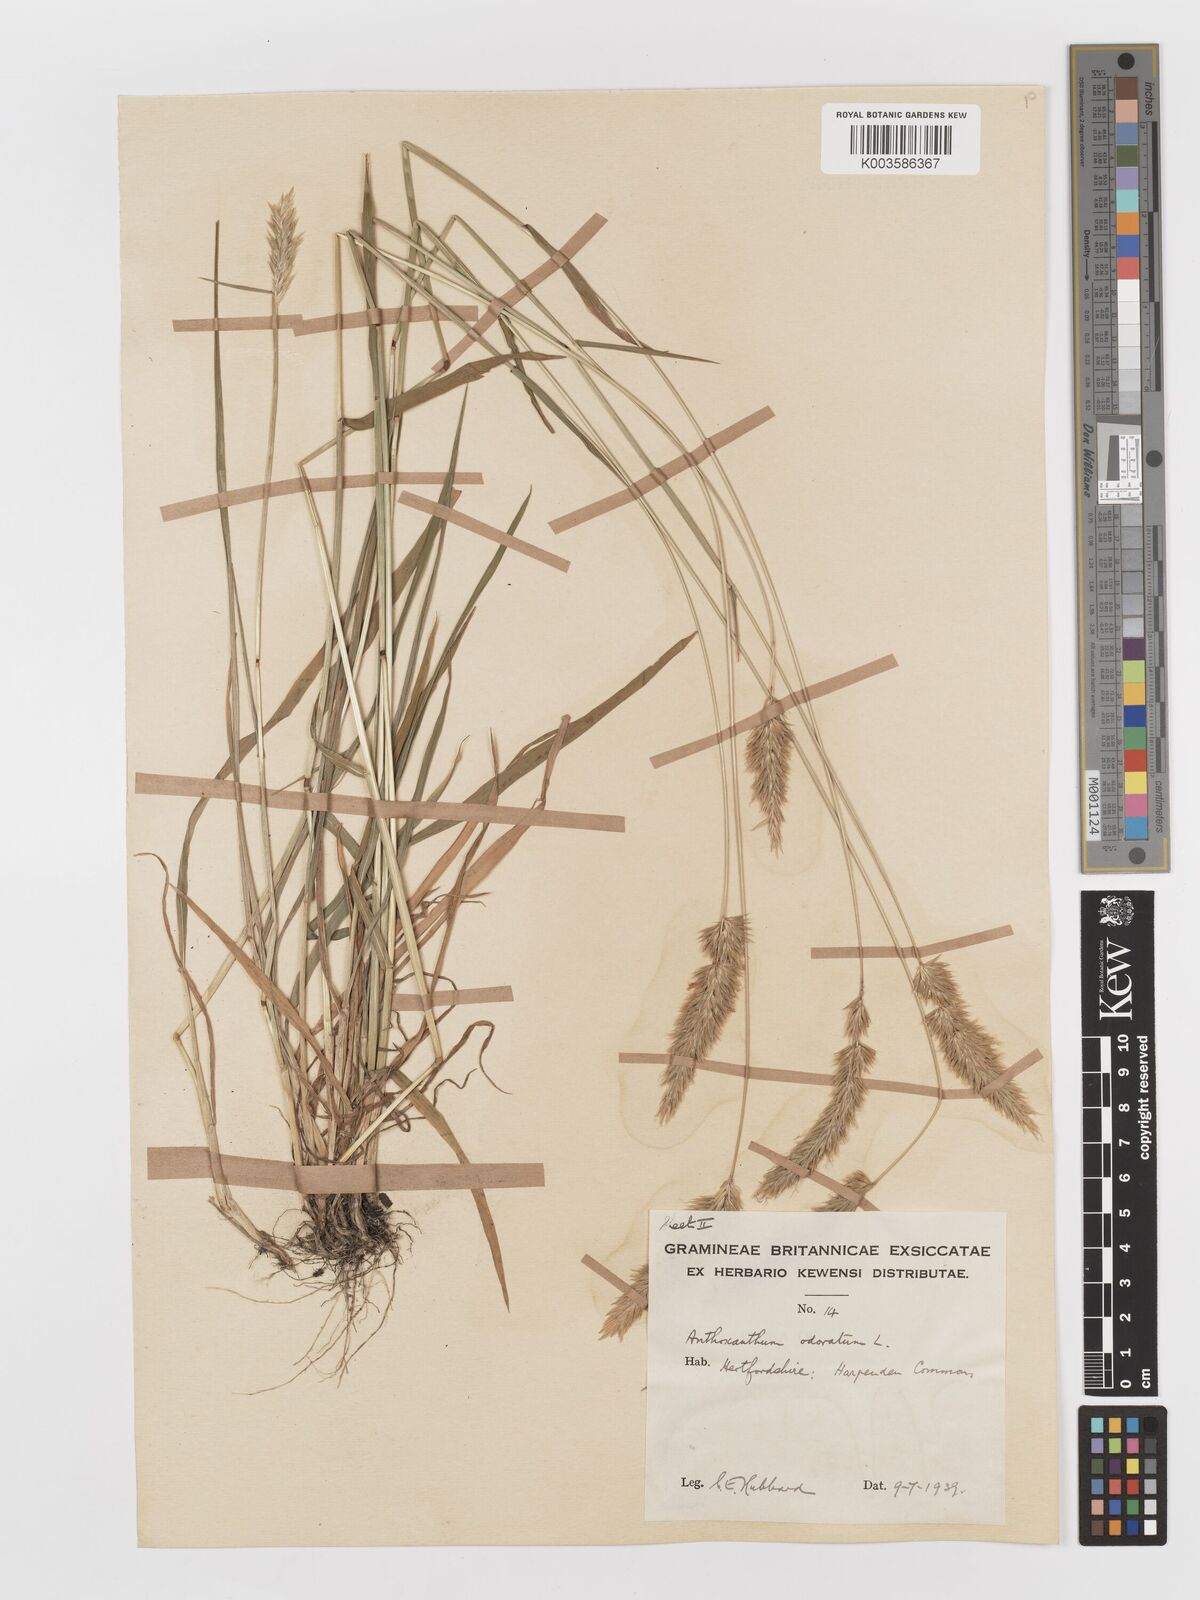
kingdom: Plantae
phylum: Tracheophyta
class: Liliopsida
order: Poales
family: Poaceae
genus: Anthoxanthum
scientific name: Anthoxanthum odoratum
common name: Sweet vernalgrass
